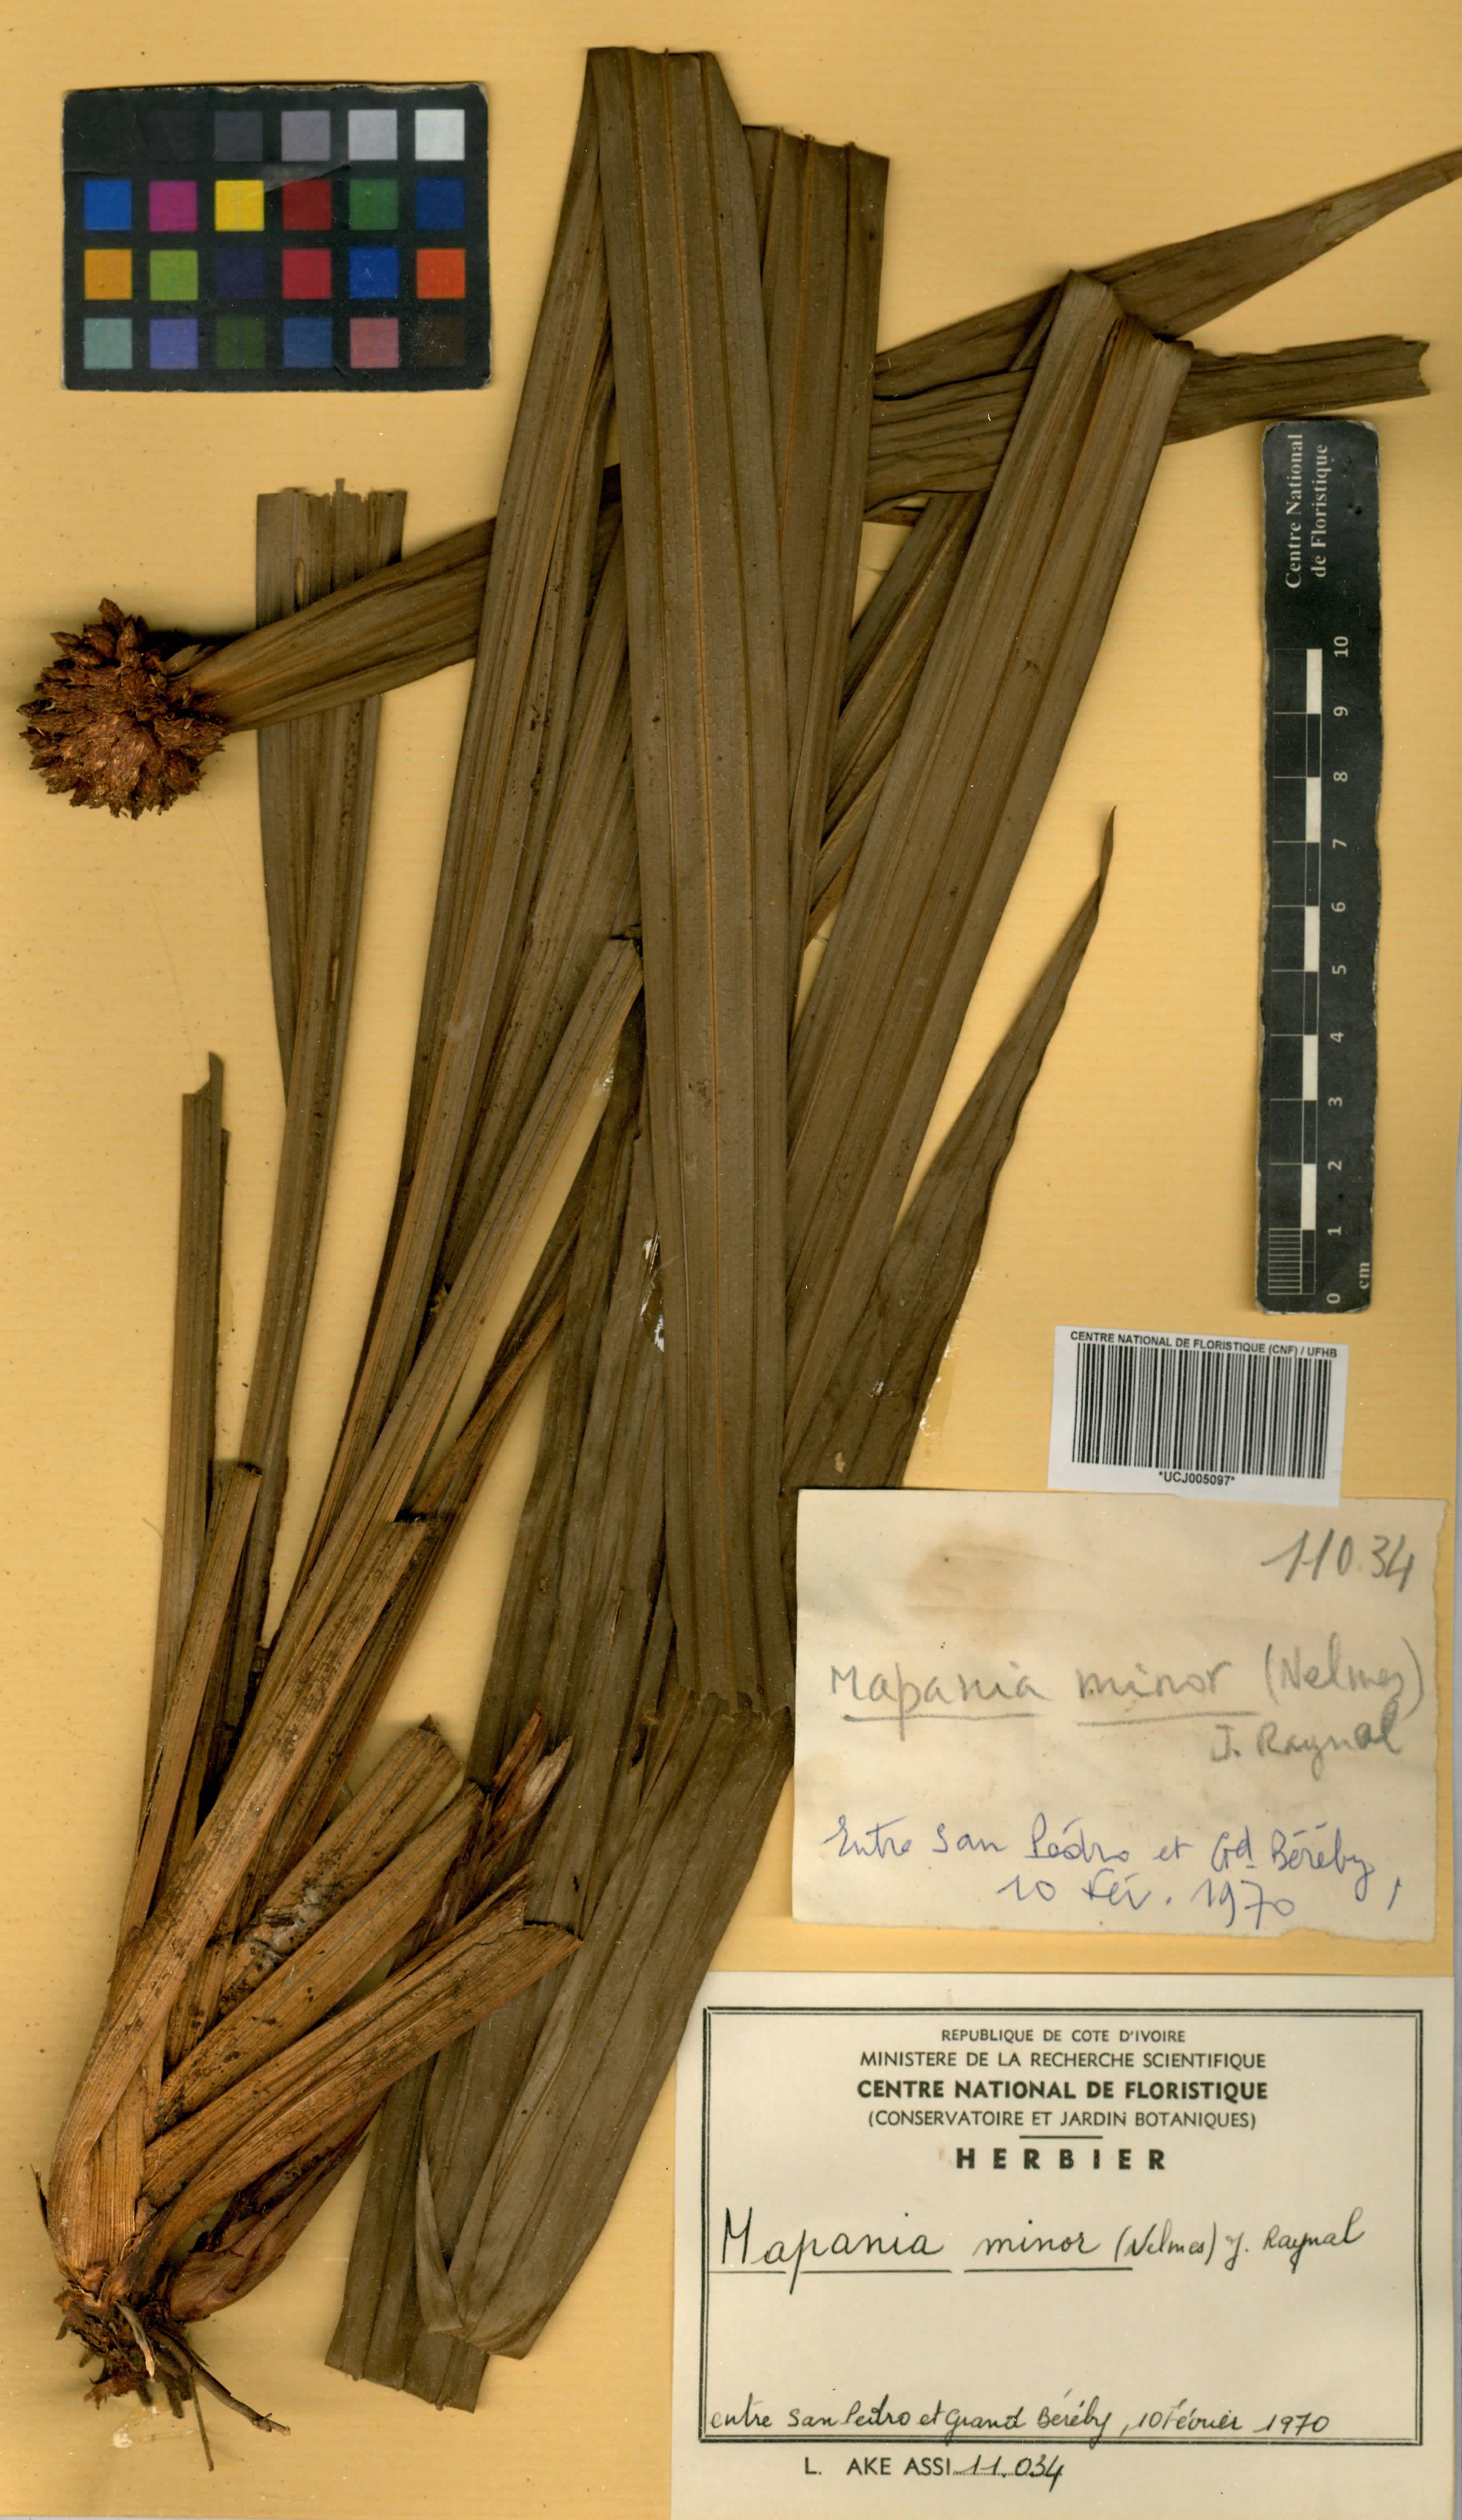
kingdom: Plantae
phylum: Tracheophyta
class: Liliopsida
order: Poales
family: Cyperaceae
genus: Mapania
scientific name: Mapania minor
